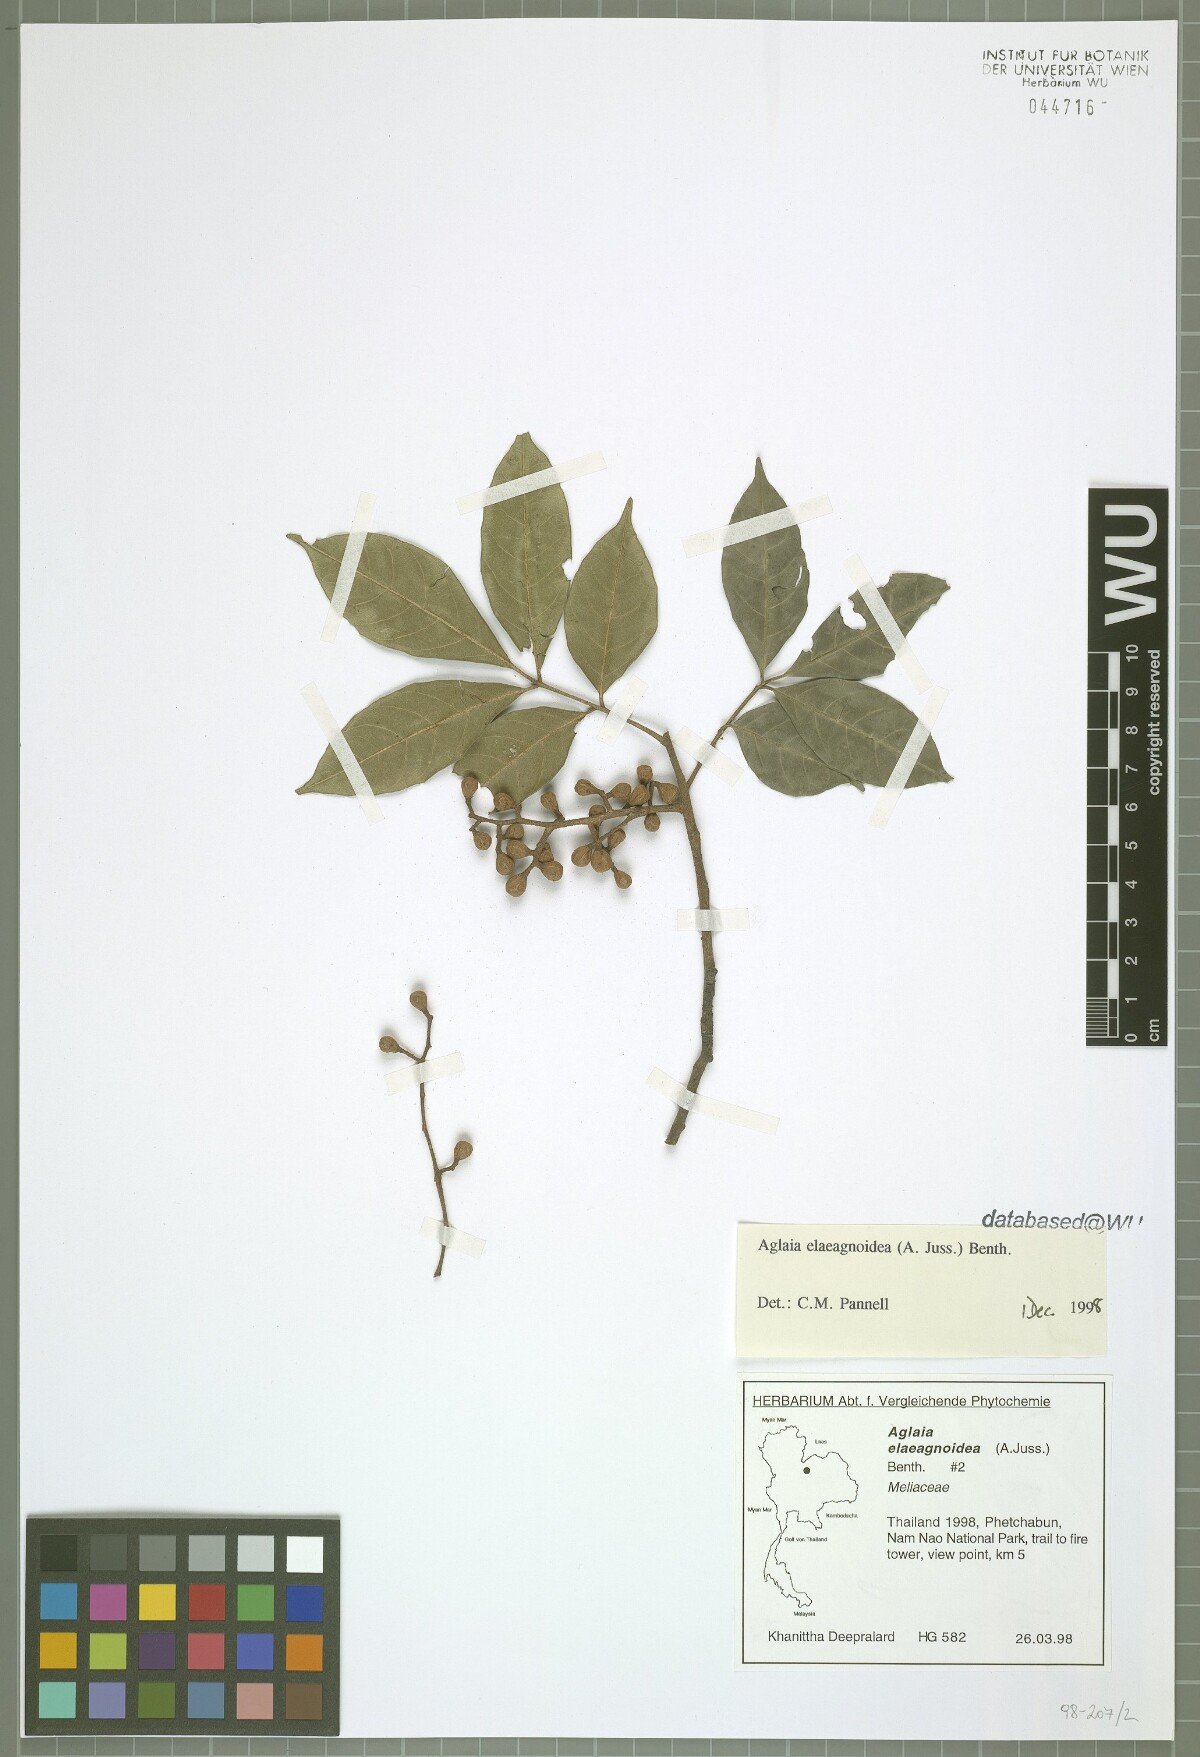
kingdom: Plantae
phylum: Tracheophyta
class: Magnoliopsida
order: Sapindales
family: Meliaceae
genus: Aglaia
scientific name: Aglaia elaeagnoidea
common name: Droopyleaf
